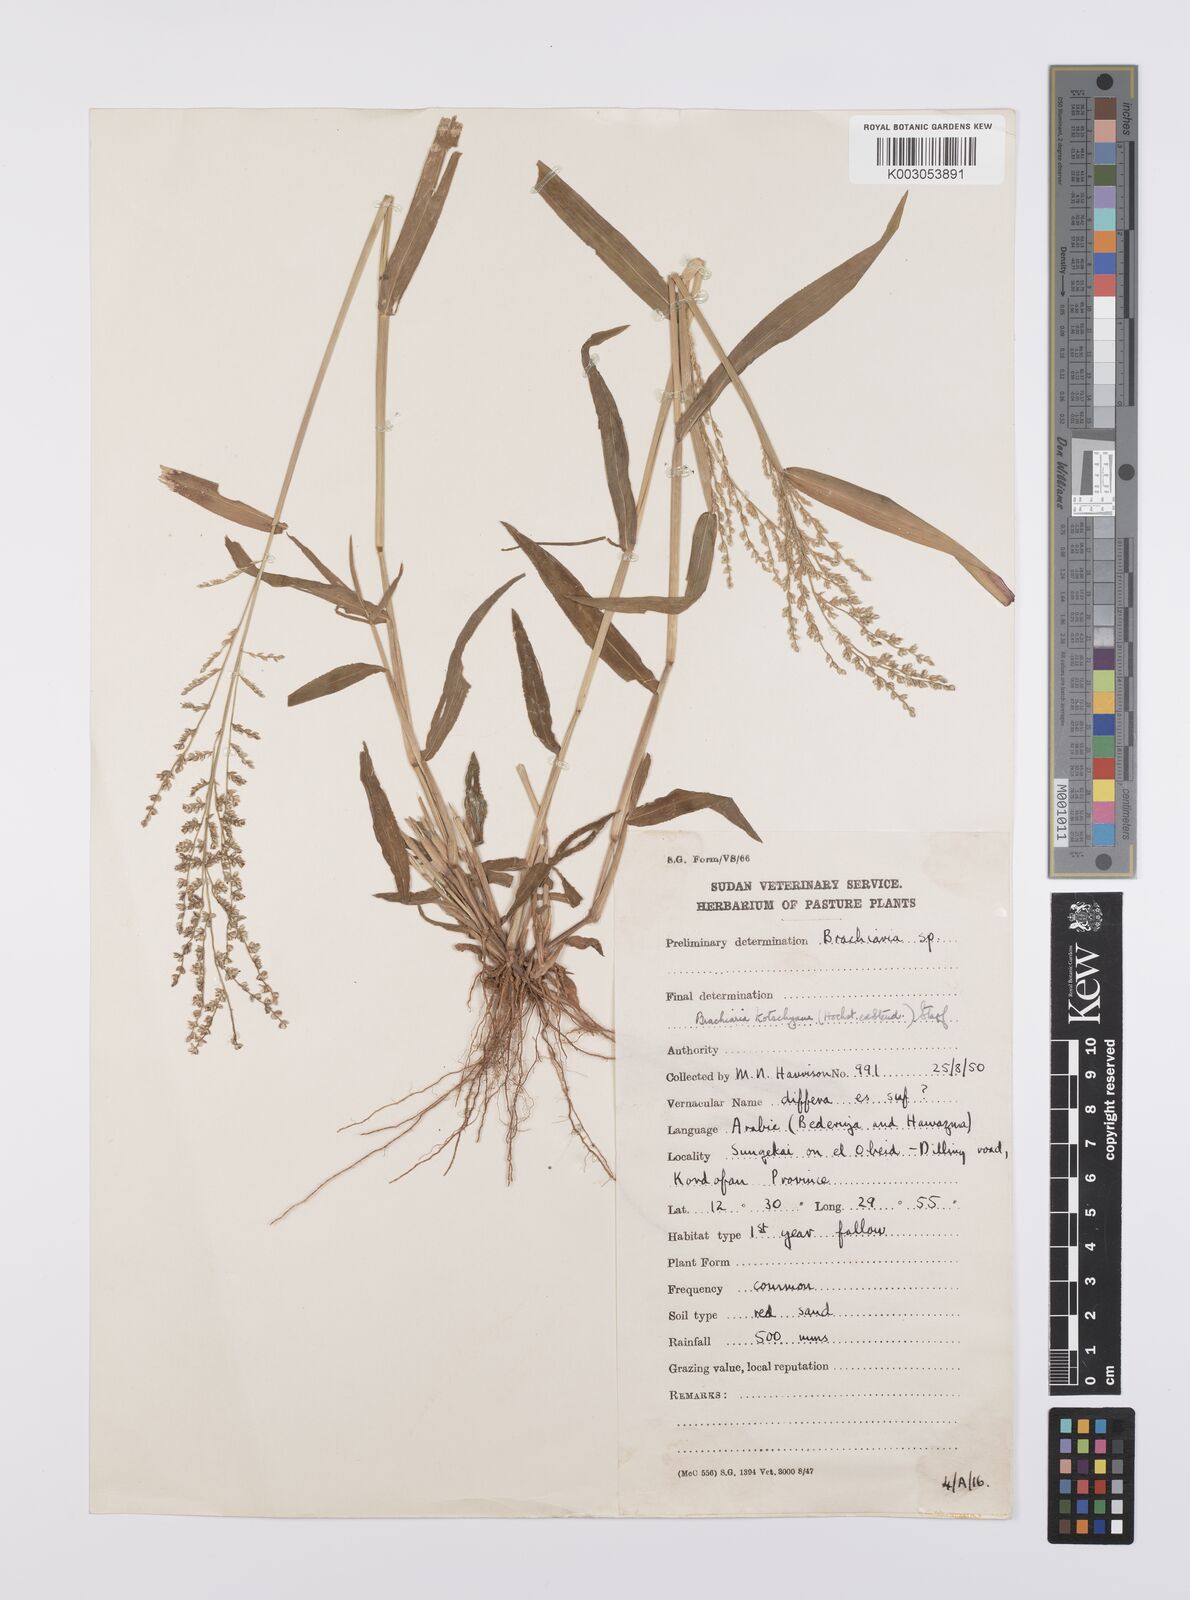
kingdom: Plantae
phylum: Tracheophyta
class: Liliopsida
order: Poales
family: Poaceae
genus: Urochloa
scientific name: Urochloa comata
